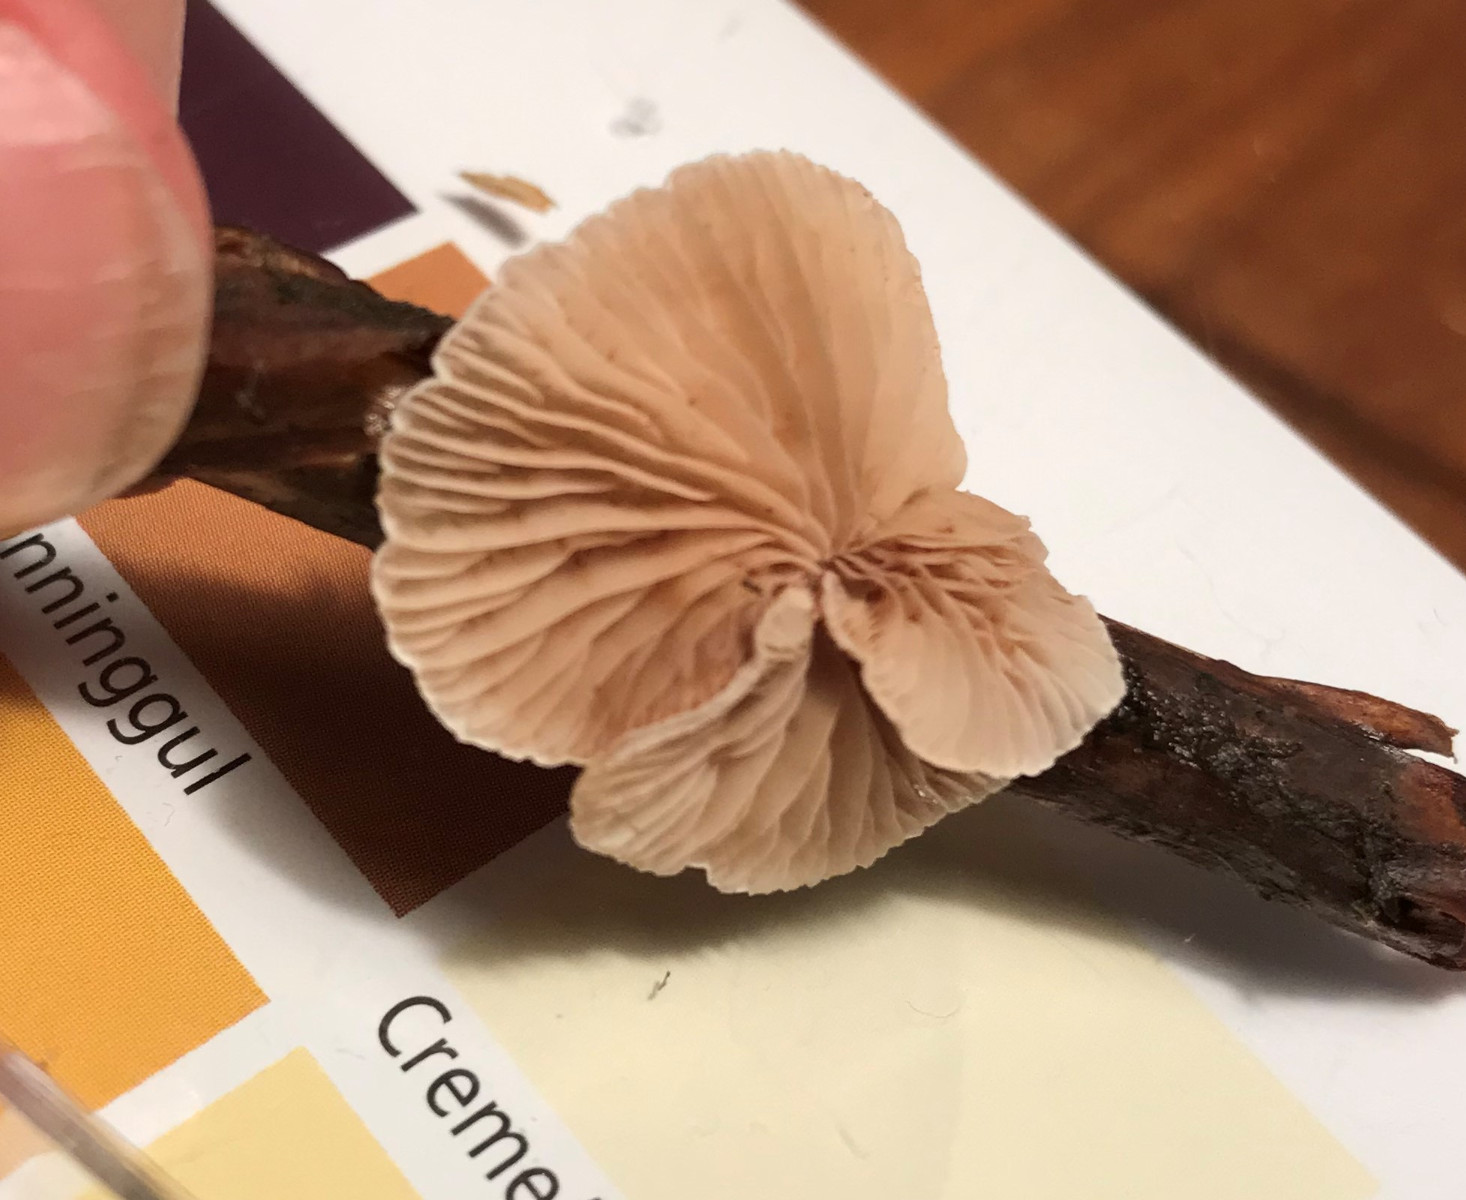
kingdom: Fungi
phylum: Basidiomycota
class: Agaricomycetes
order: Agaricales
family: Crepidotaceae
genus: Crepidotus
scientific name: Crepidotus variabilis
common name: forskelligformet muslingesvamp
